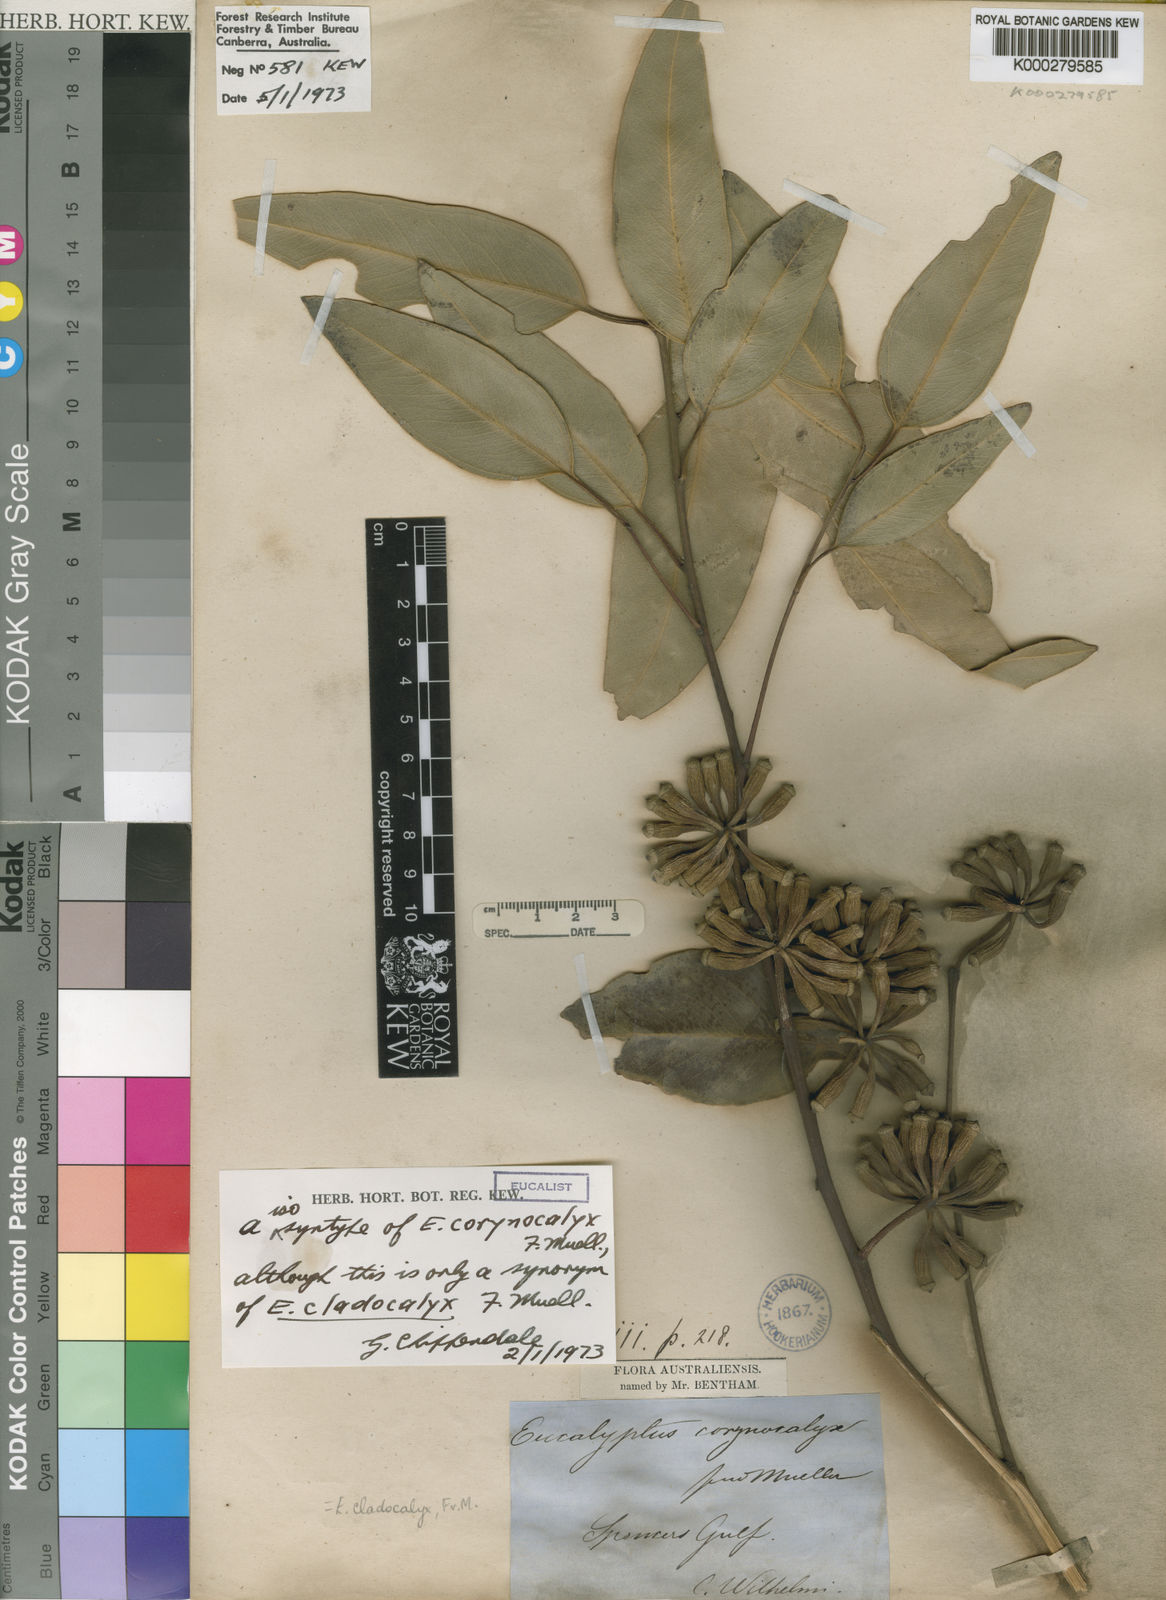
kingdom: Plantae
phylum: Tracheophyta
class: Magnoliopsida
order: Myrtales
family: Myrtaceae
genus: Eucalyptus
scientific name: Eucalyptus cladocalyx
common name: Sugargum
